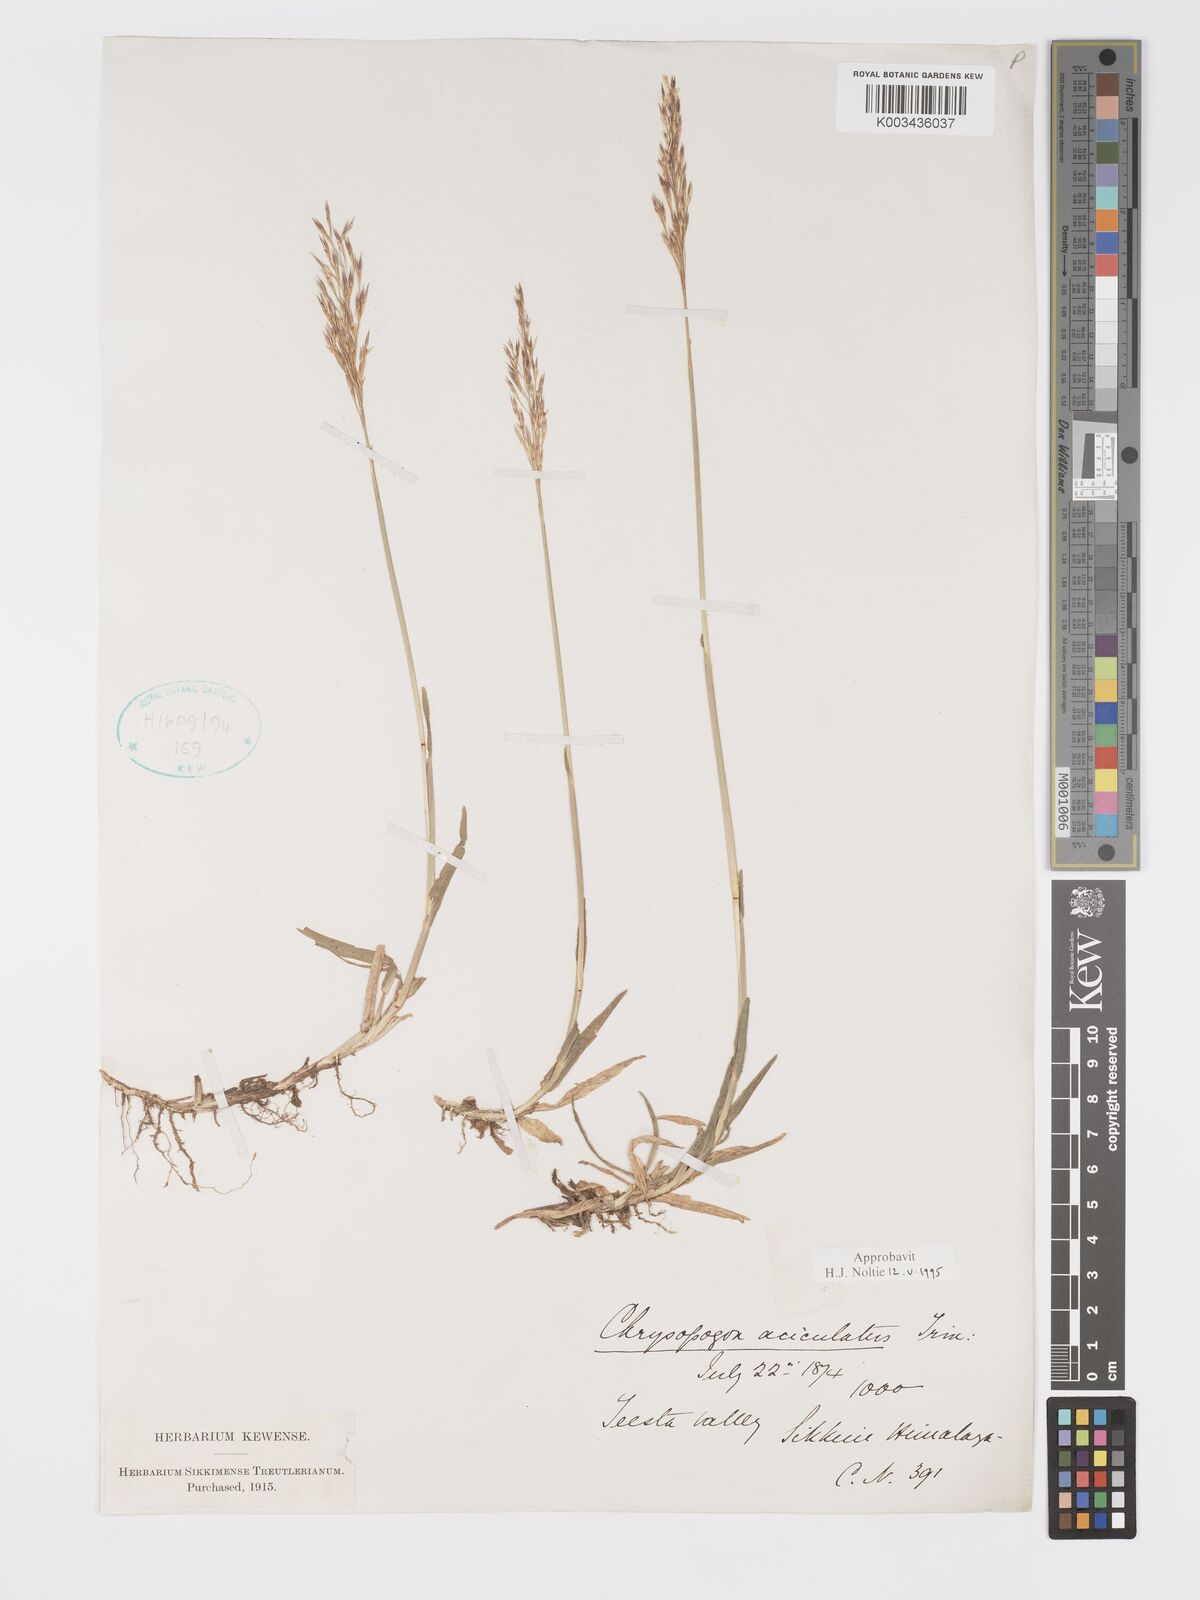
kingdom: Plantae
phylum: Tracheophyta
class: Liliopsida
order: Poales
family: Poaceae
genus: Chrysopogon
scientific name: Chrysopogon aciculatus
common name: Pilipiliula
